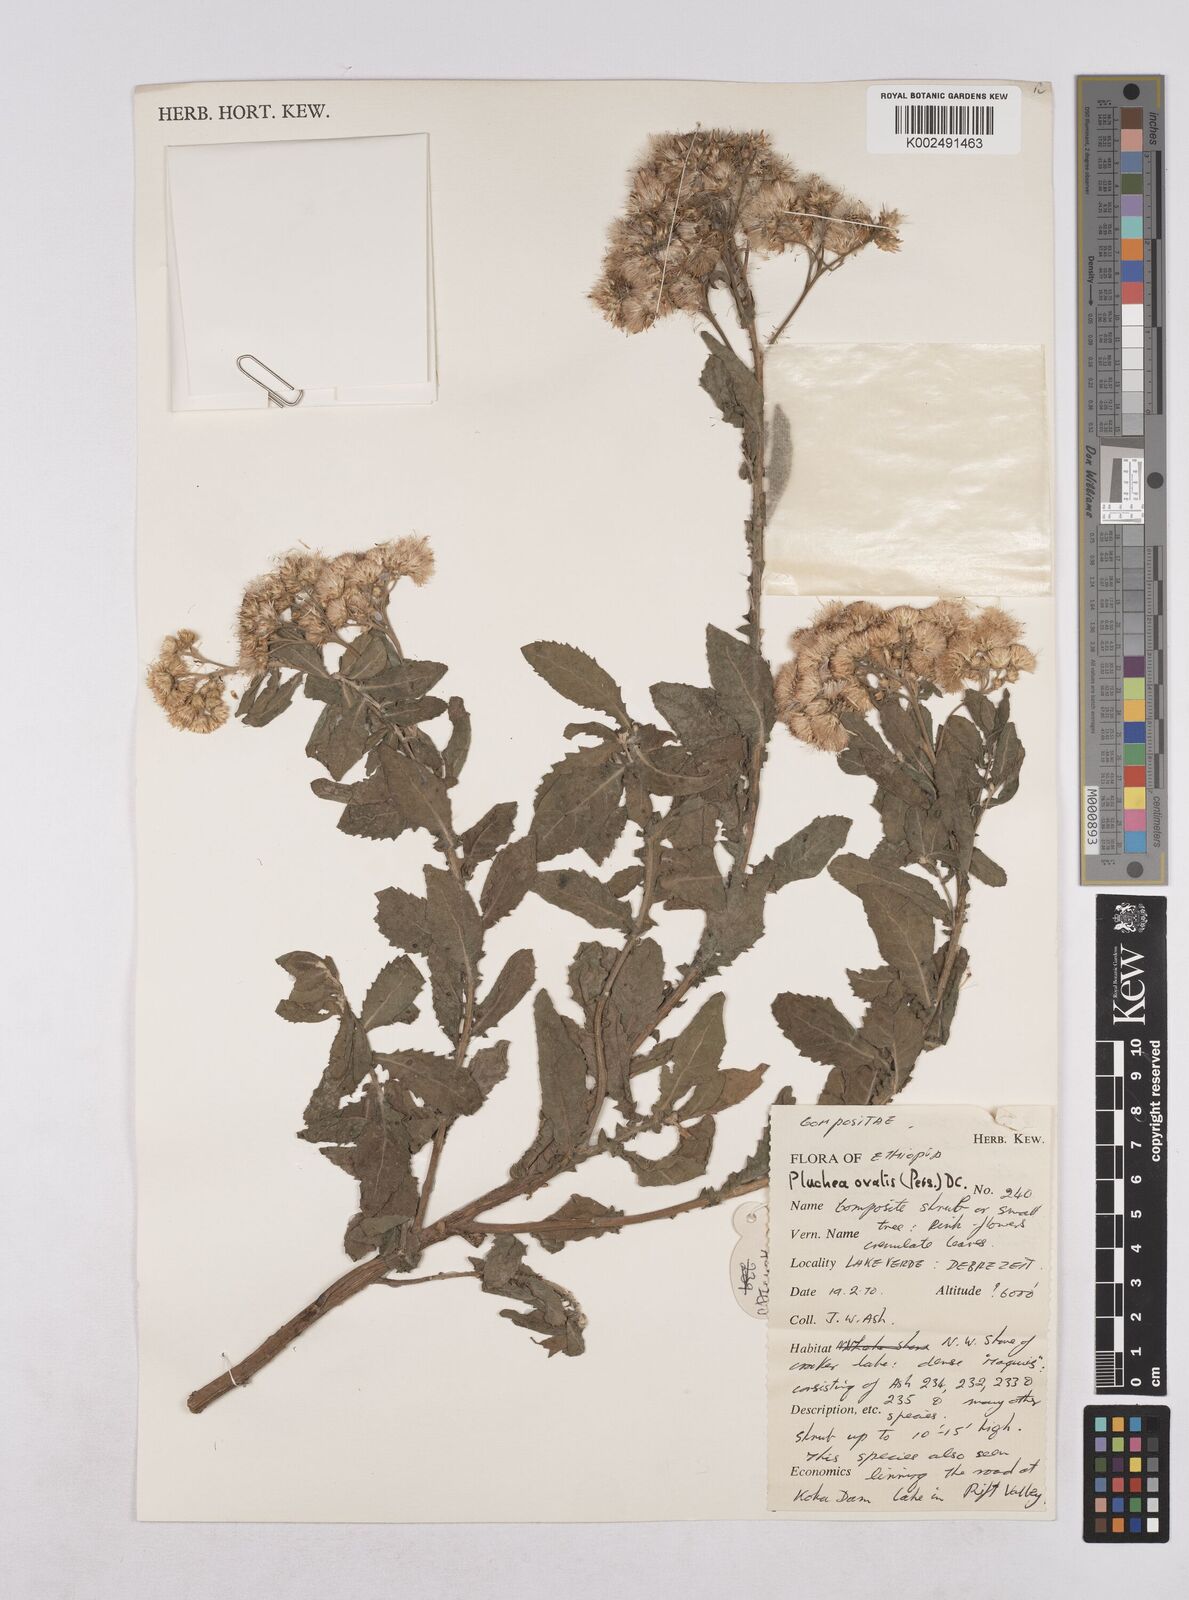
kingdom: Plantae
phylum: Tracheophyta
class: Magnoliopsida
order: Asterales
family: Asteraceae
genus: Pluchea
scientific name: Pluchea ovalis
